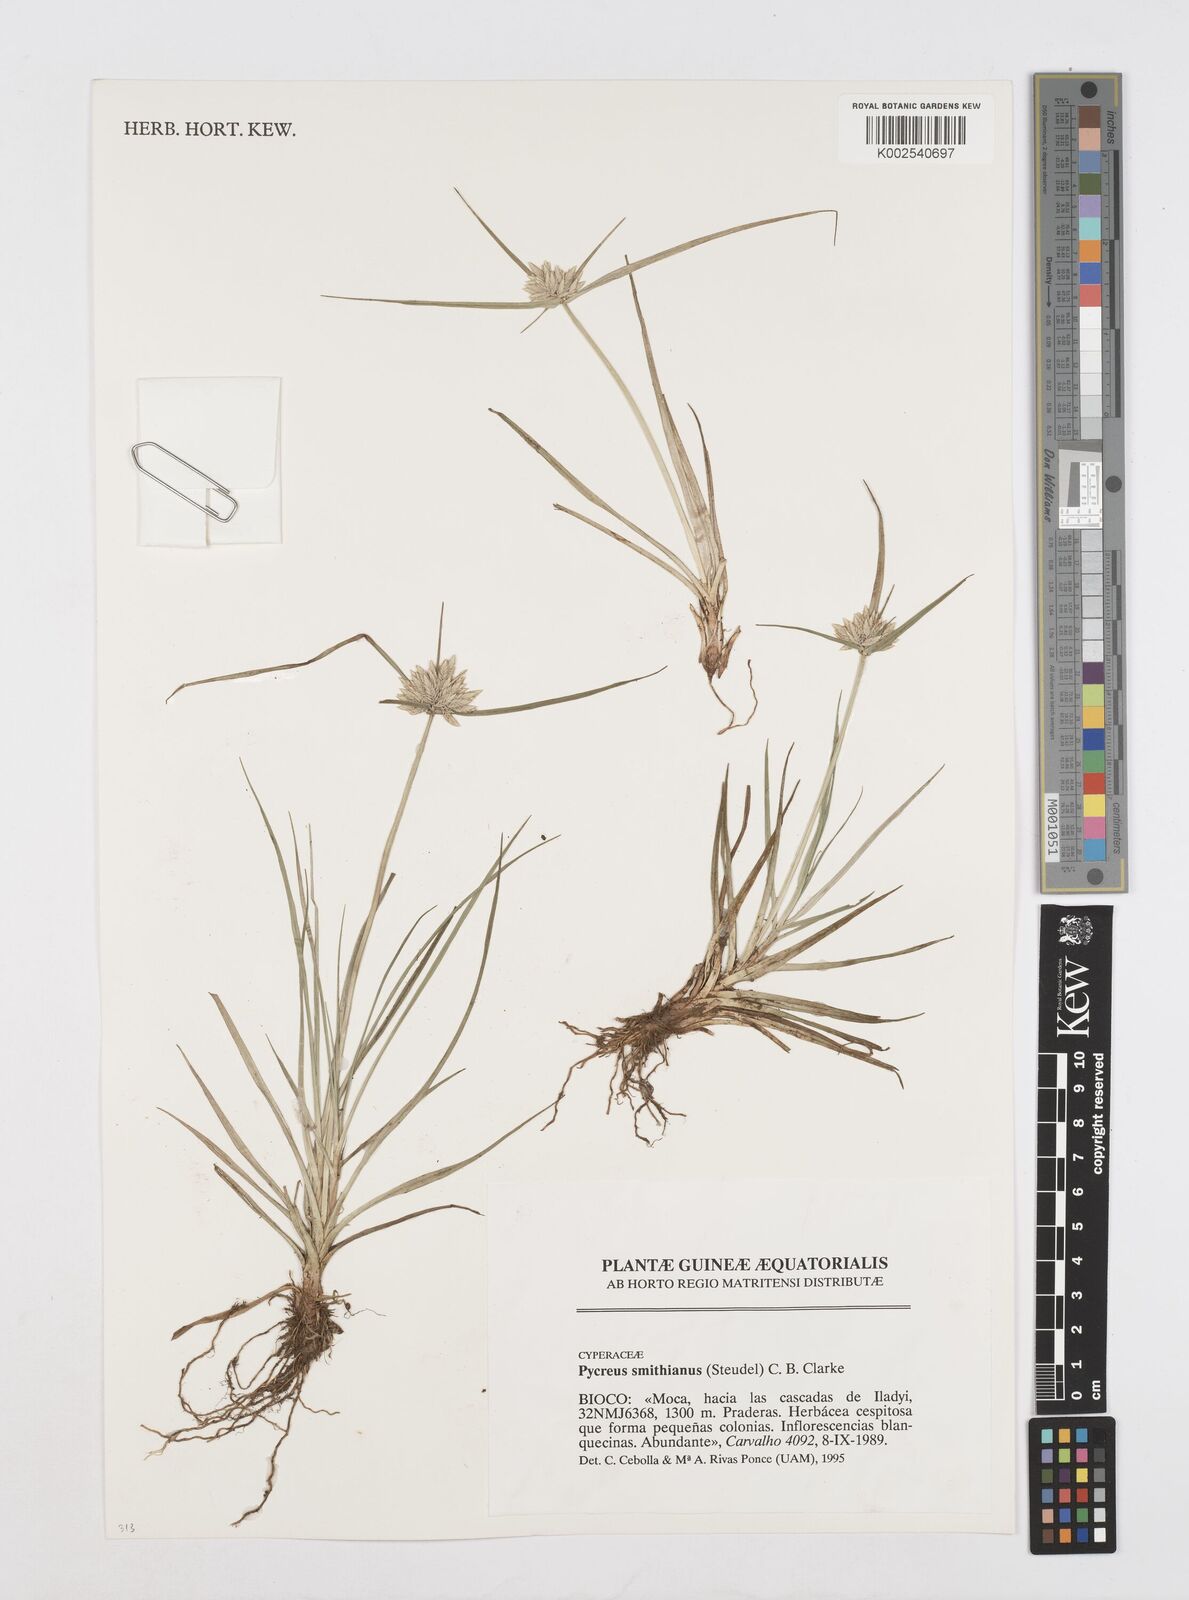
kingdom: Plantae
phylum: Tracheophyta
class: Liliopsida
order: Poales
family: Cyperaceae
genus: Cyperus
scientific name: Cyperus smithianus
